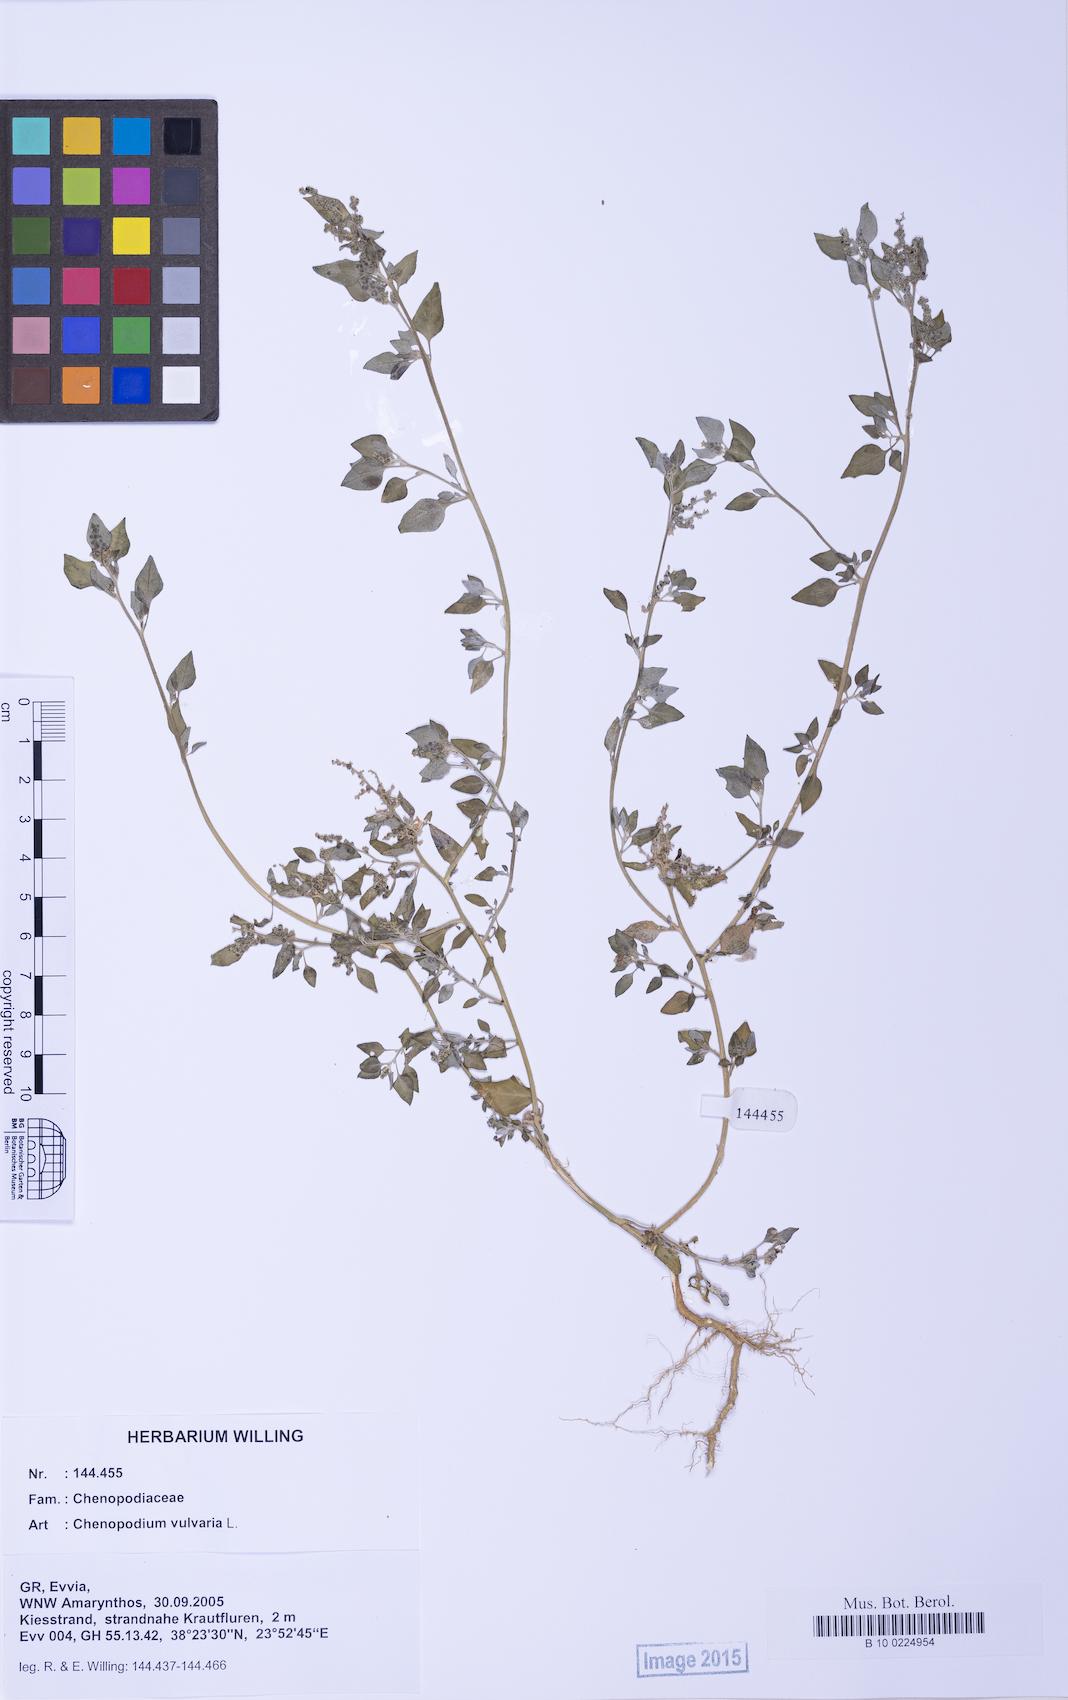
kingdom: Plantae
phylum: Tracheophyta
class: Magnoliopsida
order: Caryophyllales
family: Amaranthaceae
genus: Chenopodium
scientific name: Chenopodium vulvaria
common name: Stinking goosefoot
